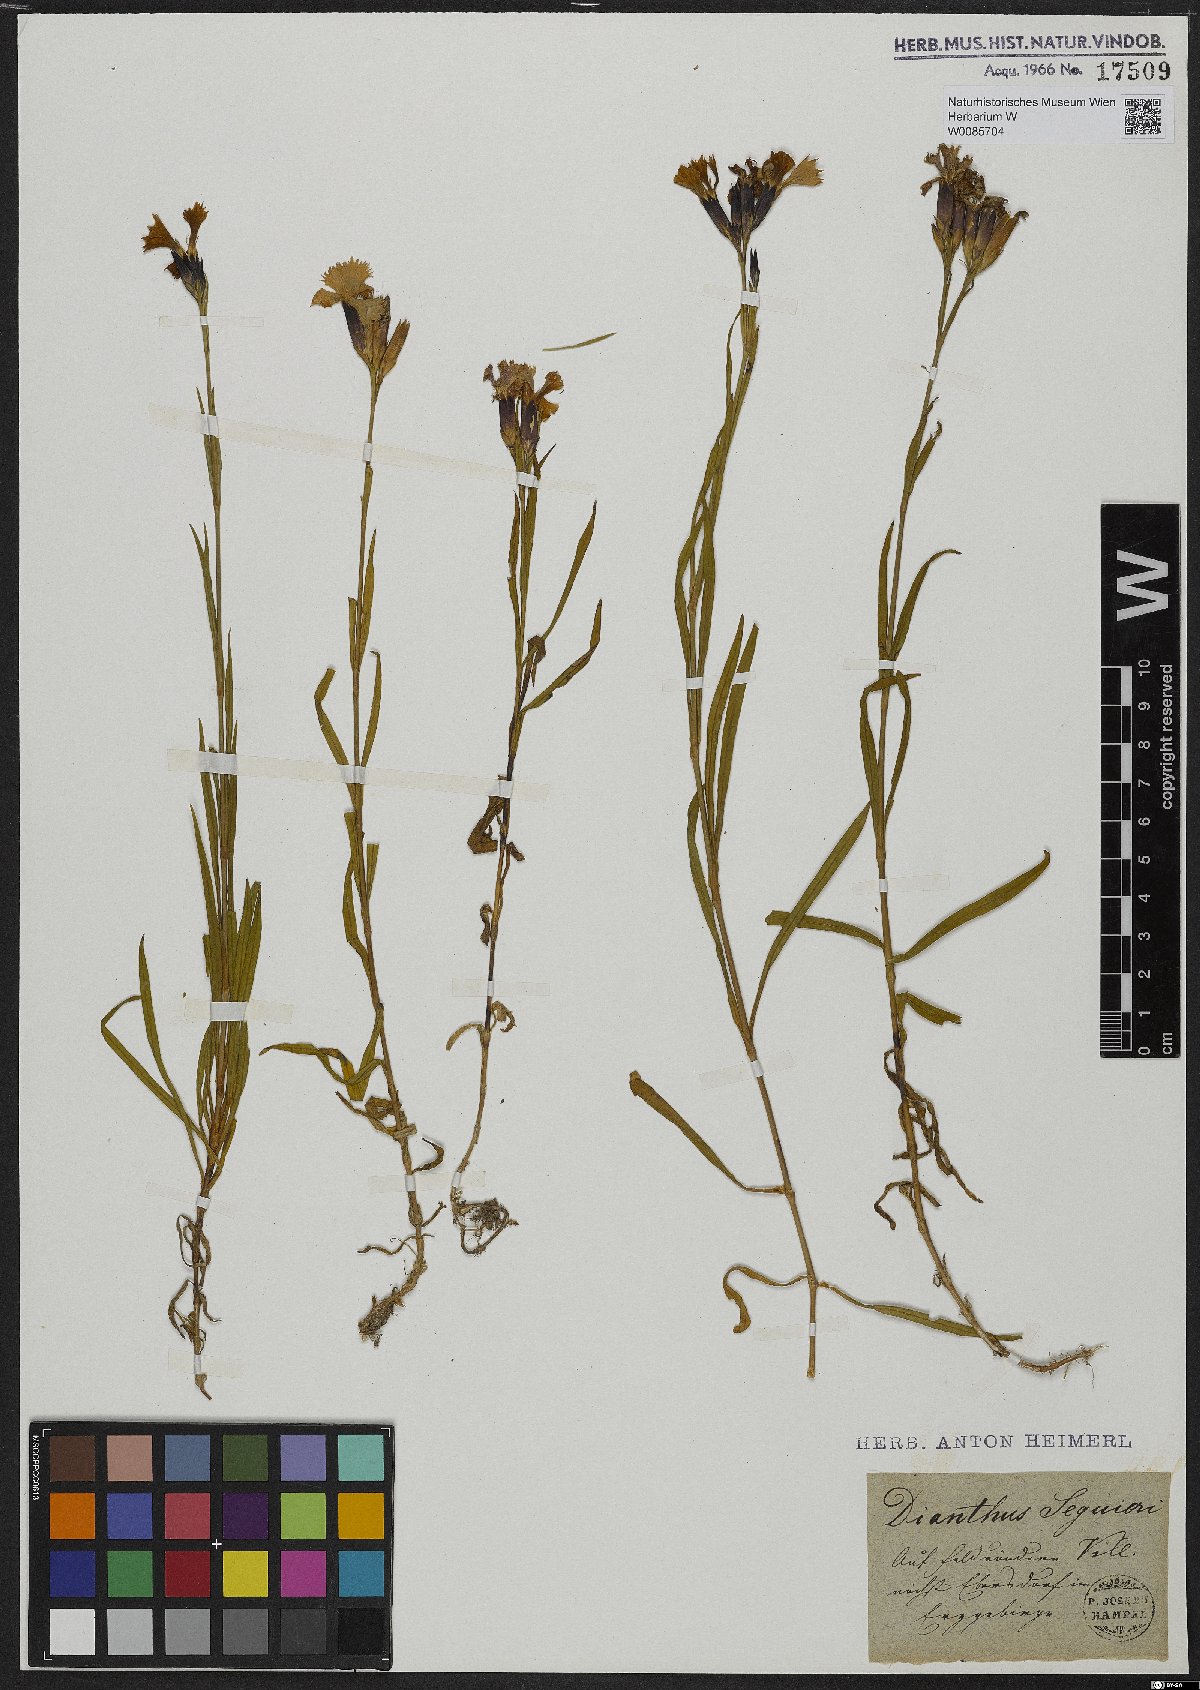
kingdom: Plantae
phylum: Tracheophyta
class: Magnoliopsida
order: Caryophyllales
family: Caryophyllaceae
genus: Dianthus
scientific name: Dianthus seguieri
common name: Ragged pink
